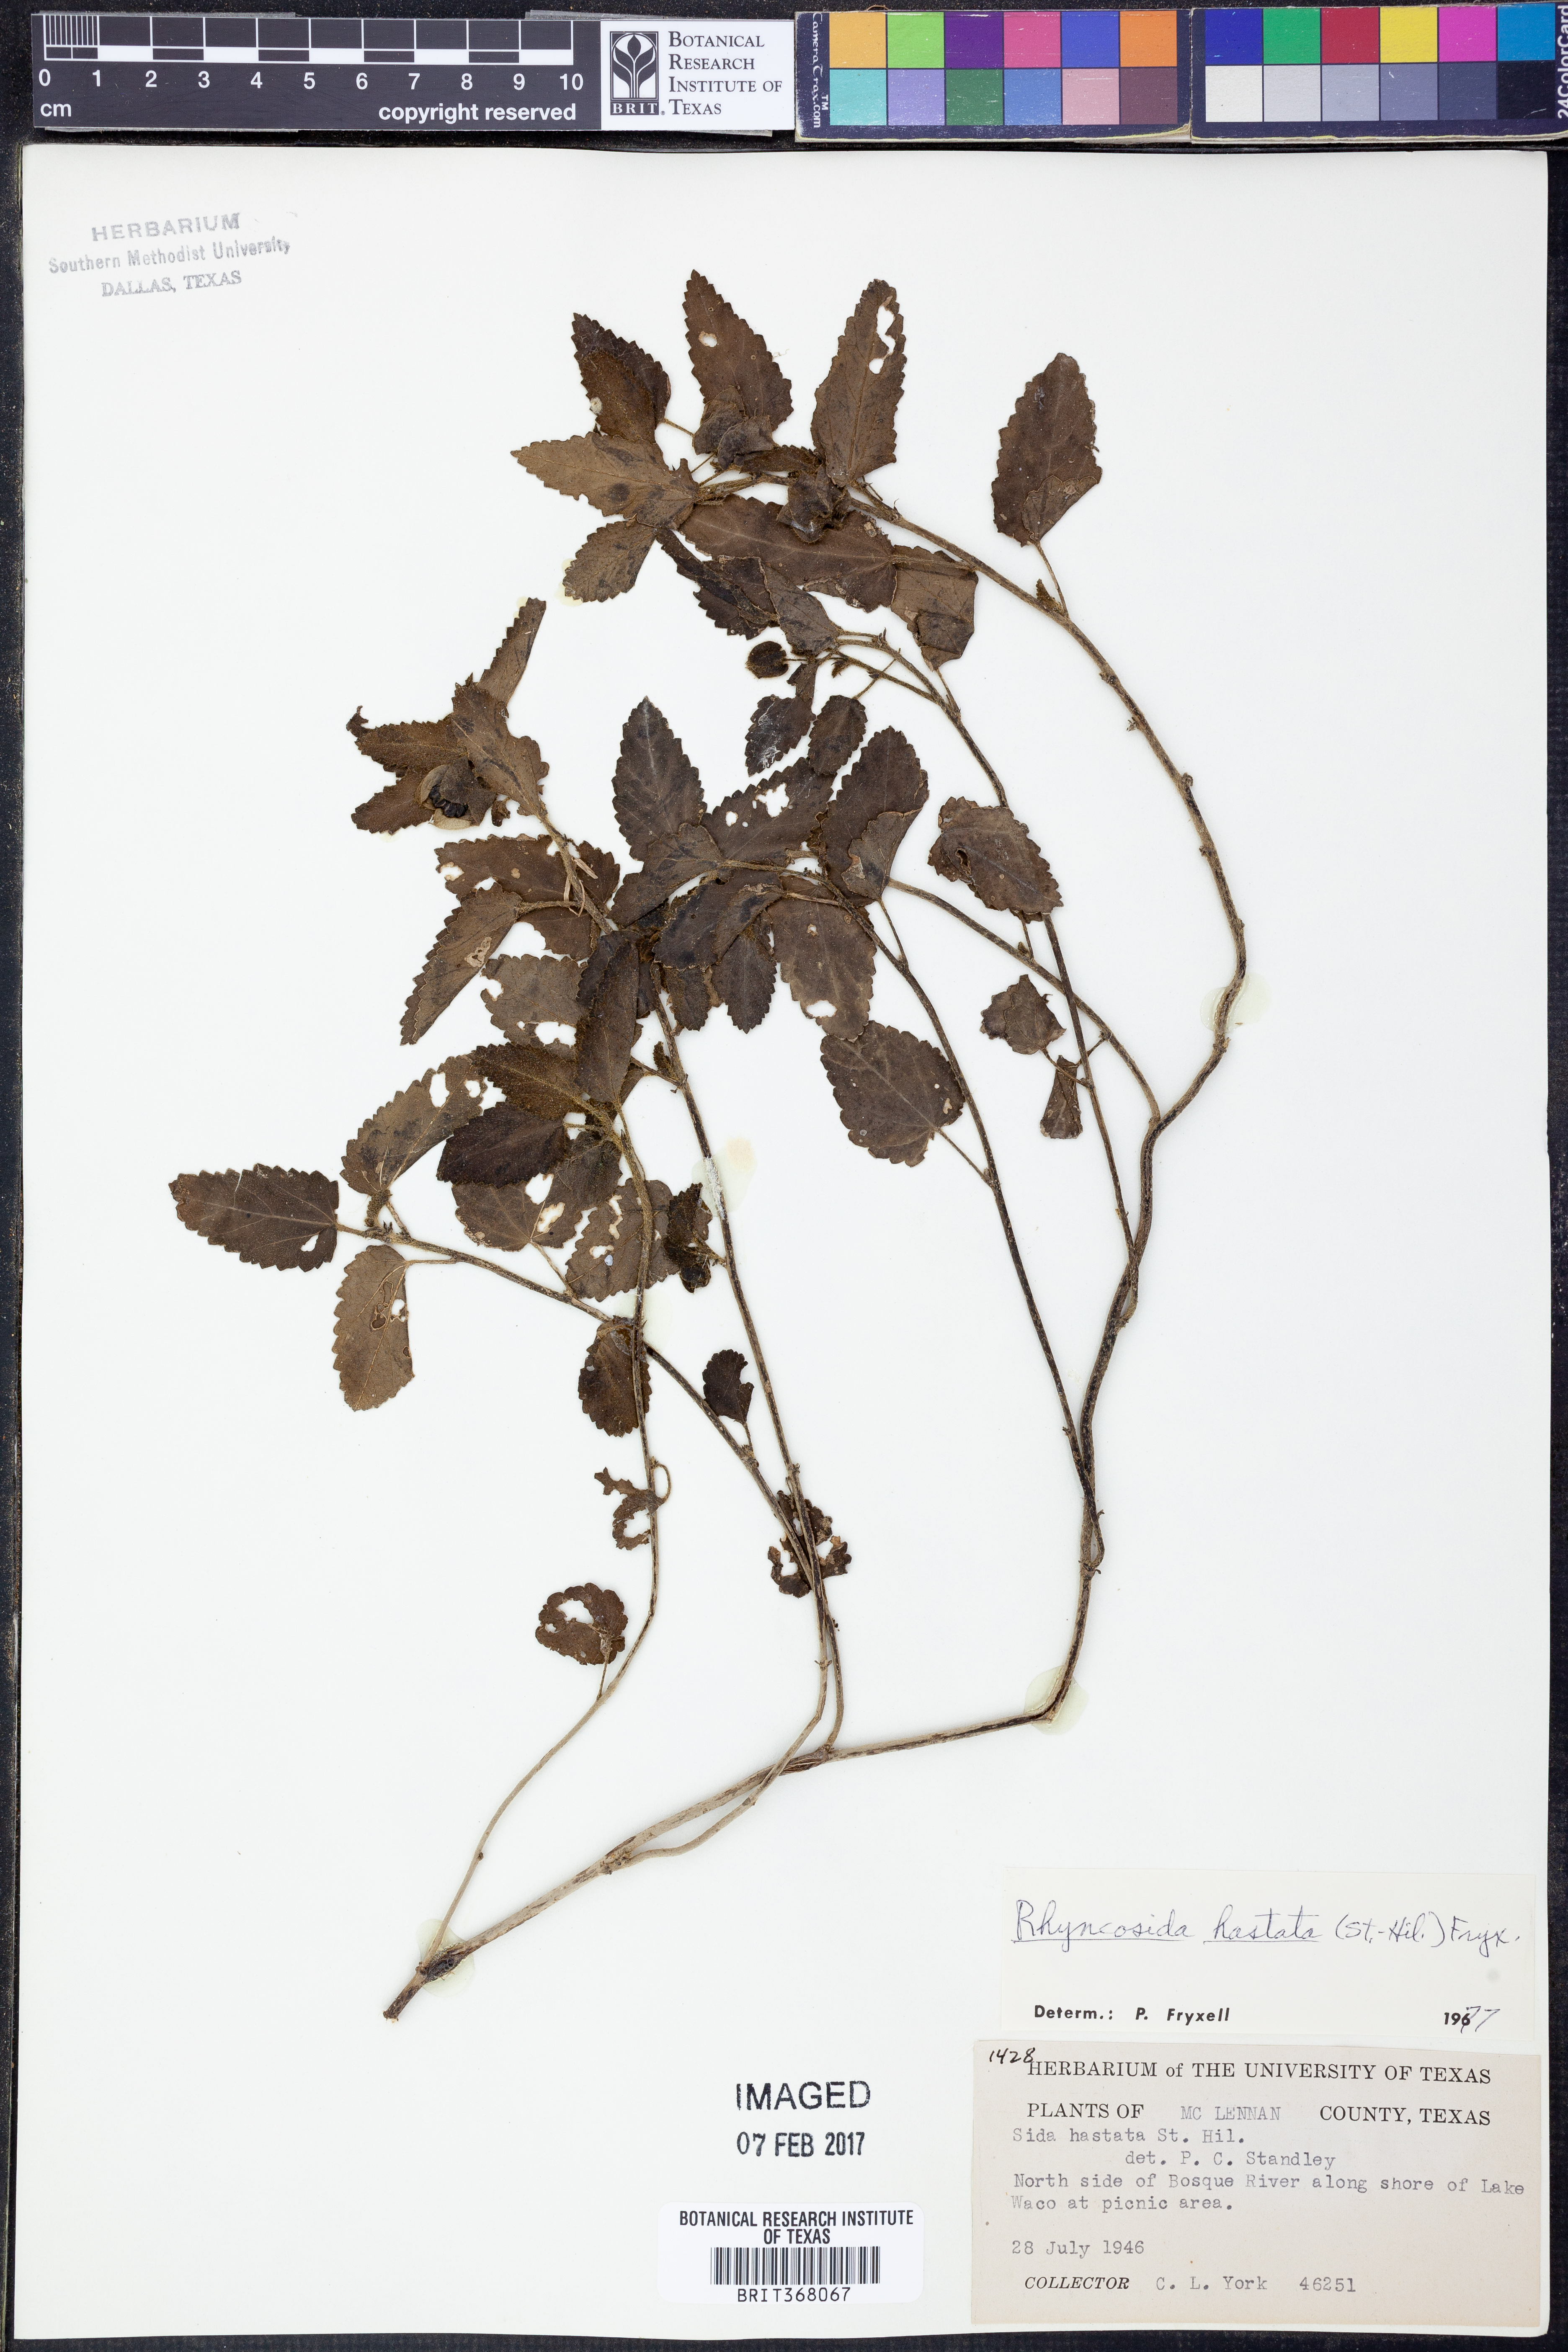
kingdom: Plantae
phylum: Tracheophyta
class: Magnoliopsida
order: Malvales
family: Malvaceae
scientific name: Malvaceae
